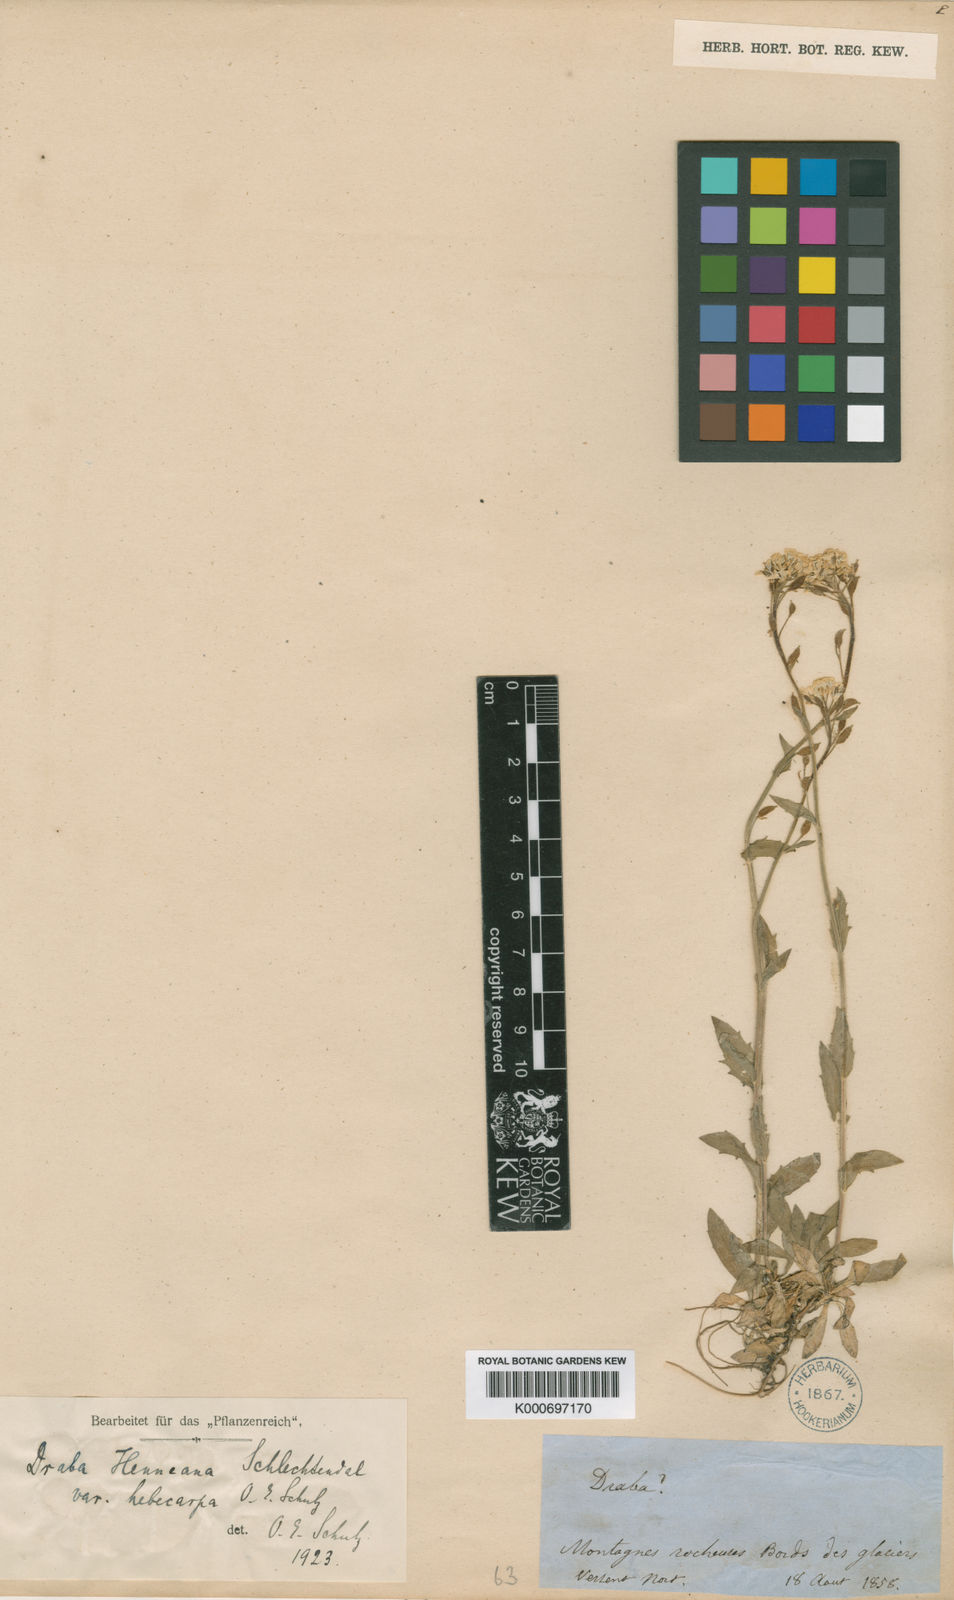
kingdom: Plantae
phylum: Tracheophyta
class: Magnoliopsida
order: Brassicales
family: Brassicaceae
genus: Draba
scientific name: Draba glabella
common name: Glaucous draba
